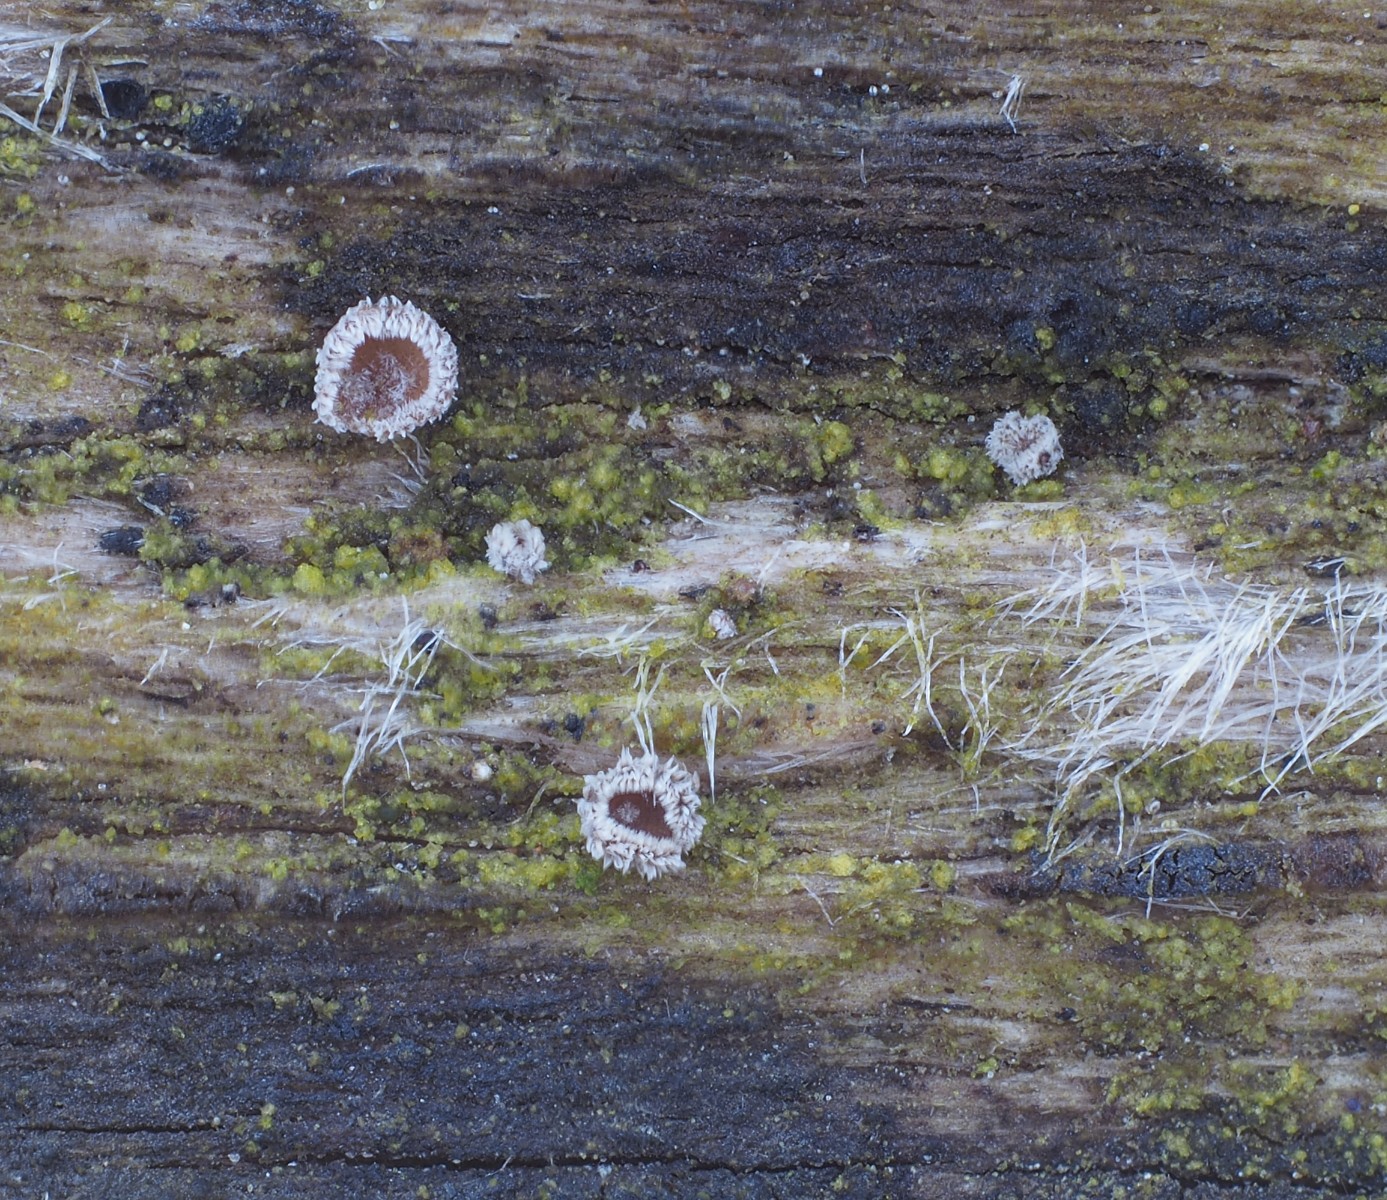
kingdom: Fungi
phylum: Ascomycota
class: Leotiomycetes
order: Helotiales
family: Solenopeziaceae
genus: Lasiobelonium
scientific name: Lasiobelonium variegatum
